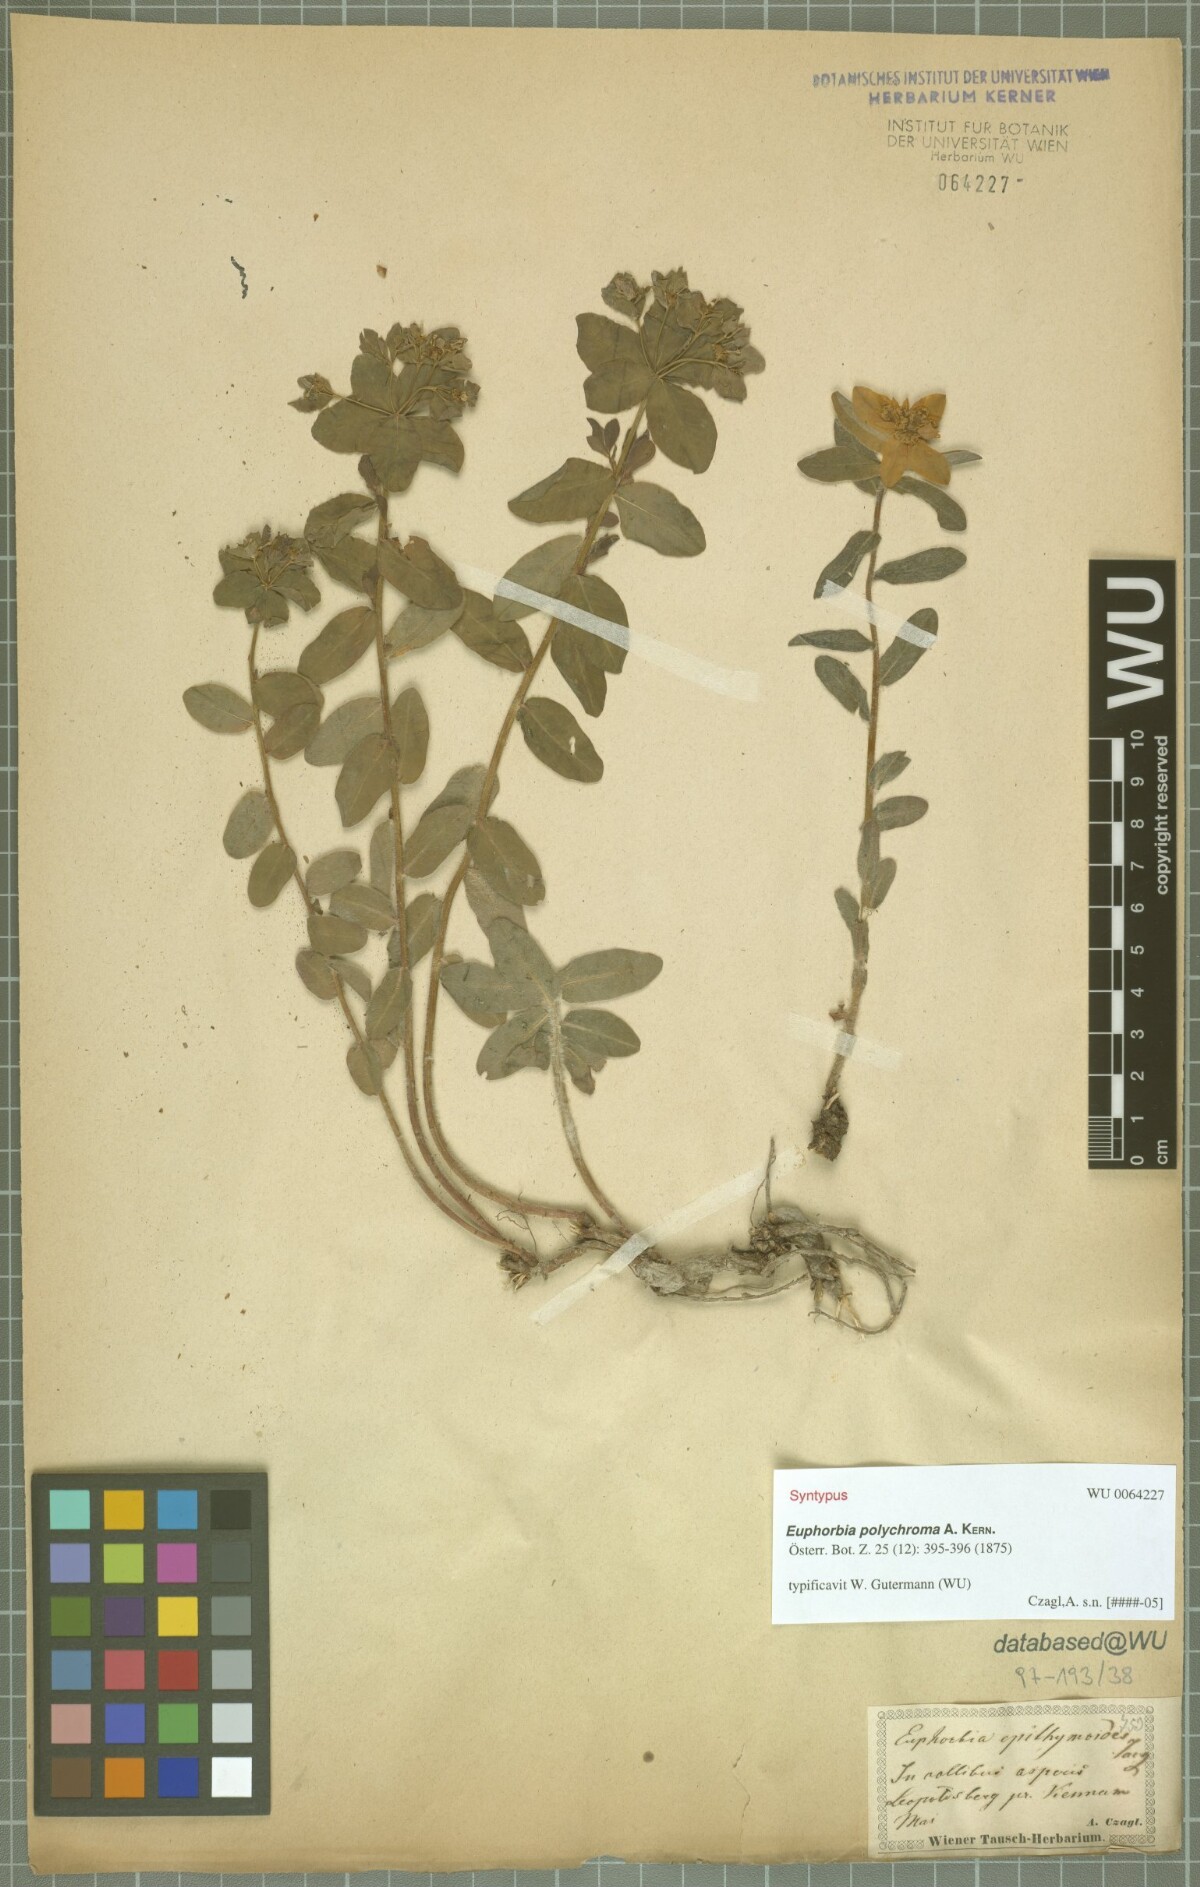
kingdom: Plantae
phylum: Tracheophyta
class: Magnoliopsida
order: Malpighiales
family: Euphorbiaceae
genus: Euphorbia
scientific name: Euphorbia epithymoides
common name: Cushion spurge
